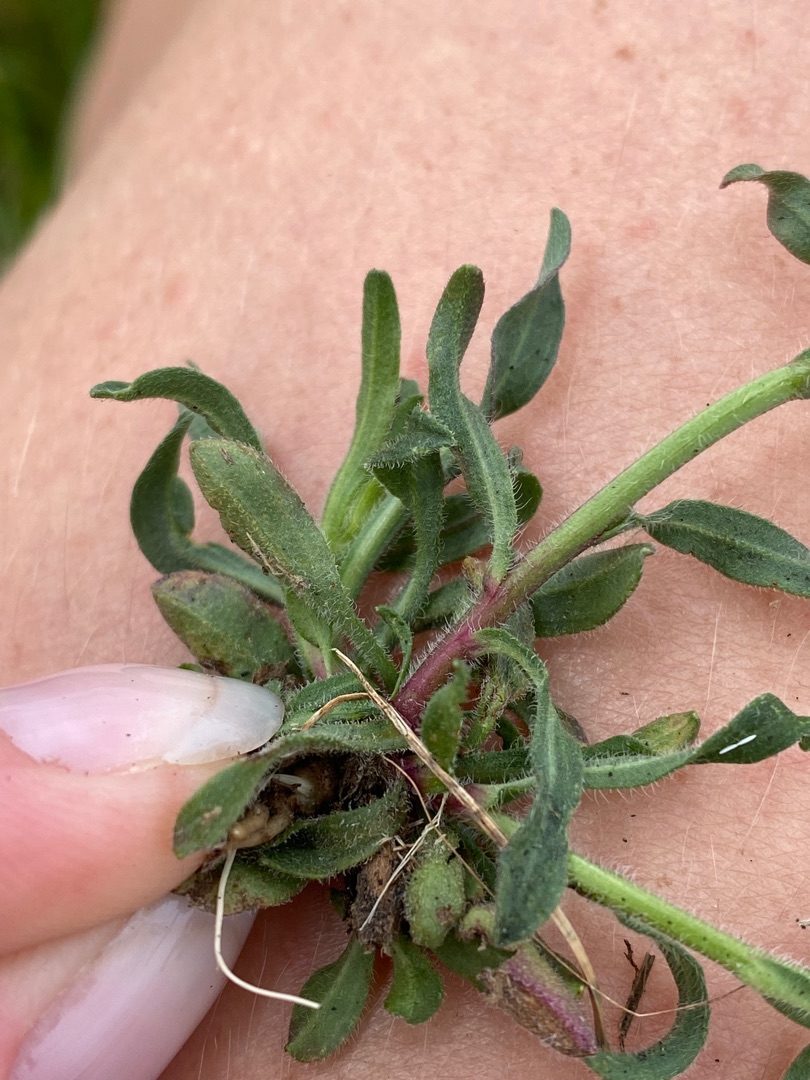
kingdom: Plantae
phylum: Tracheophyta
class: Magnoliopsida
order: Asterales
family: Asteraceae
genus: Erigeron
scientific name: Erigeron muralis
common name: Vreden bakkestjerne
